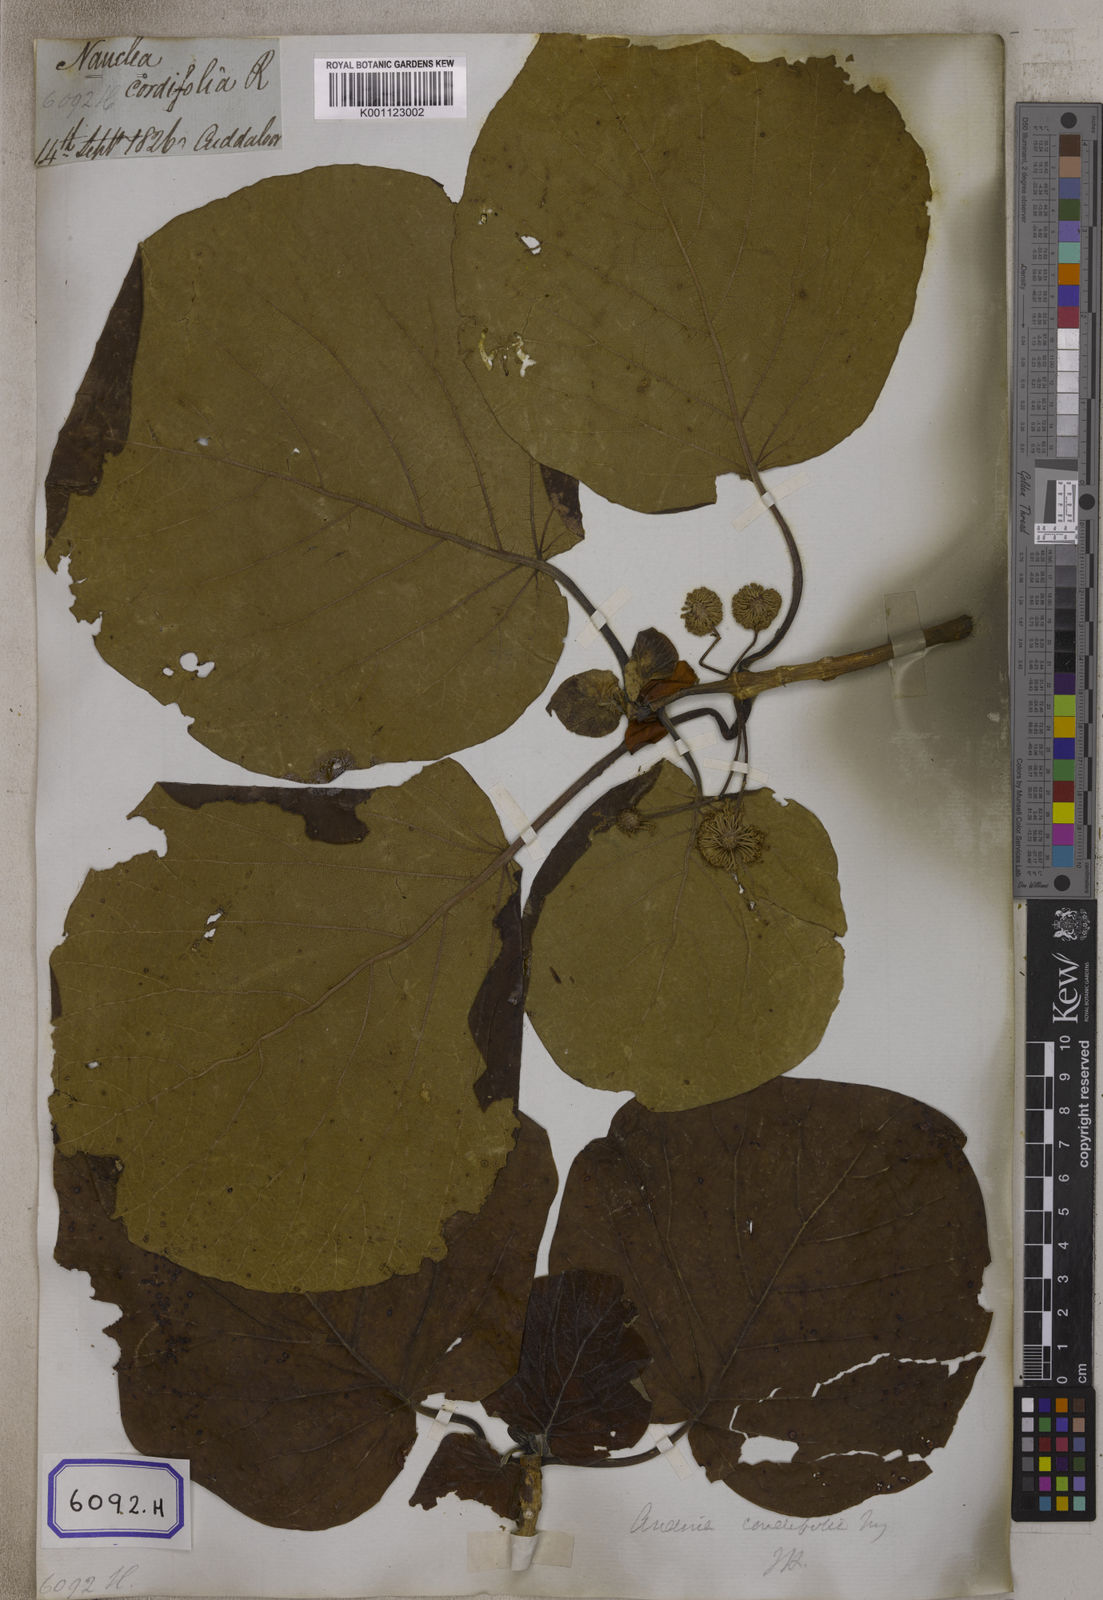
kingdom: Plantae
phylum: Tracheophyta
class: Magnoliopsida
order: Gentianales
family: Rubiaceae
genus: Adina
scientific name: Adina cordifolia
